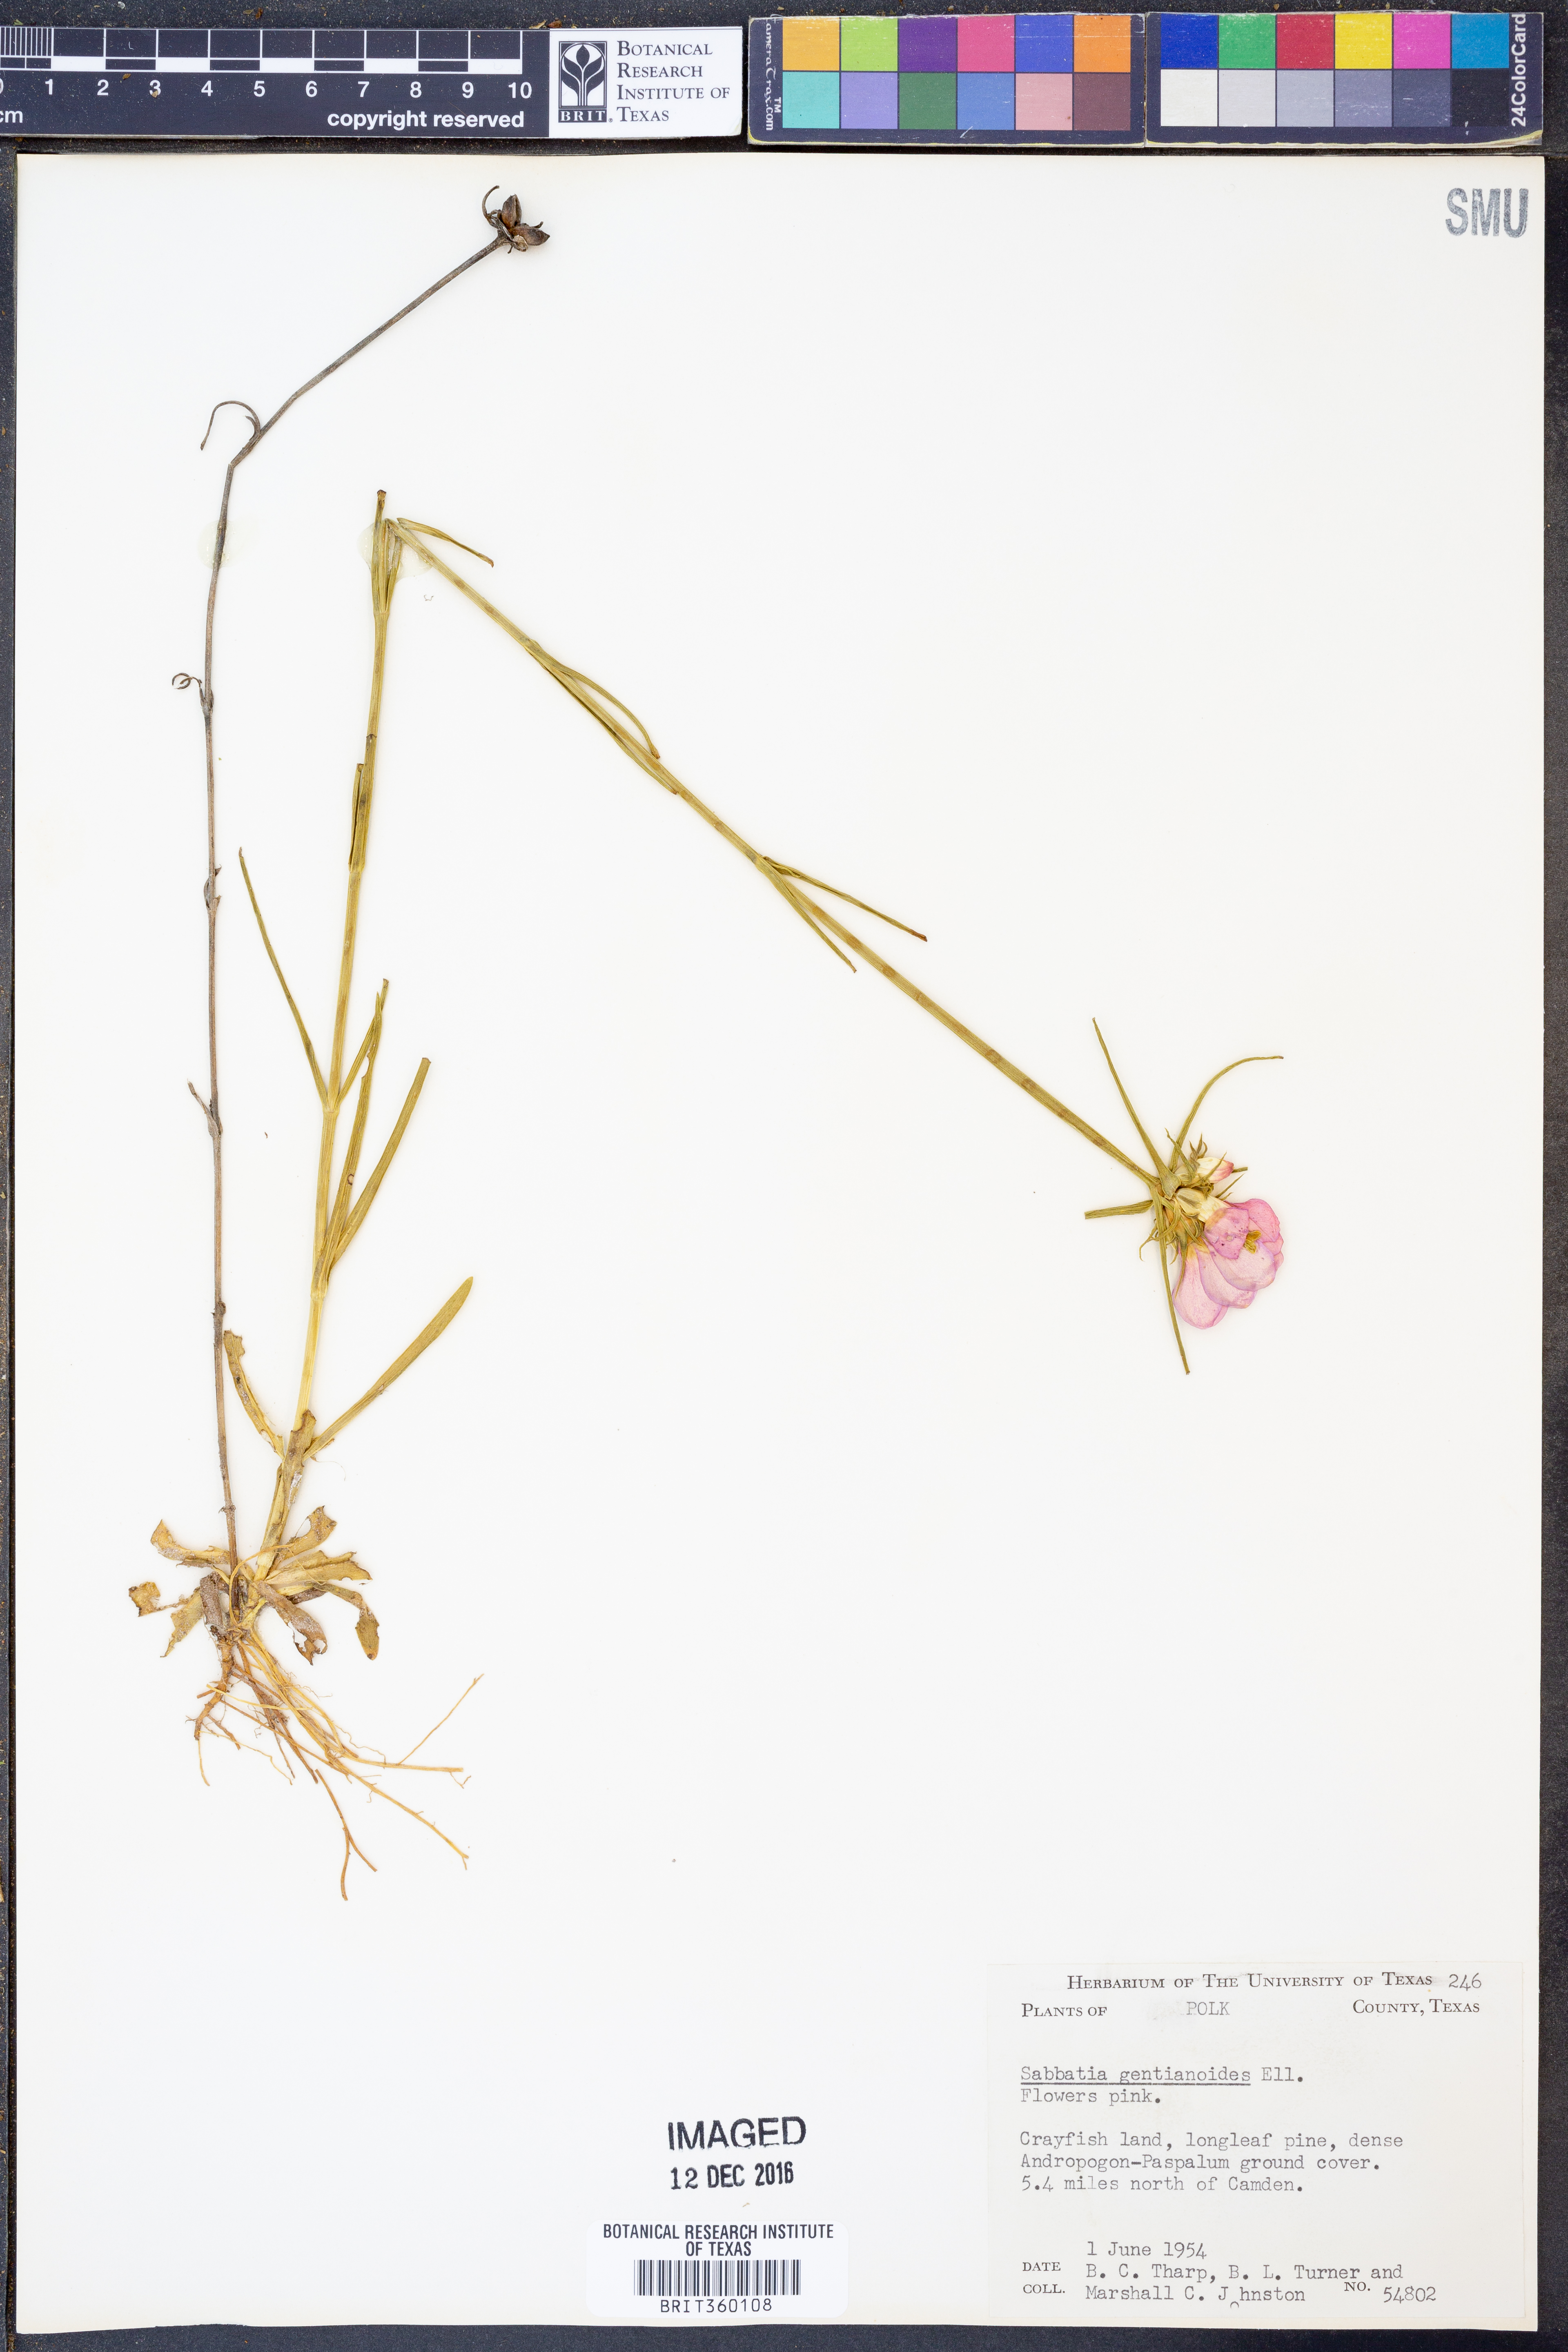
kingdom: Plantae
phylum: Tracheophyta
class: Magnoliopsida
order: Gentianales
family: Gentianaceae
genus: Sabatia
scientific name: Sabatia gentianoides
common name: Pinewoods rose-gentian
